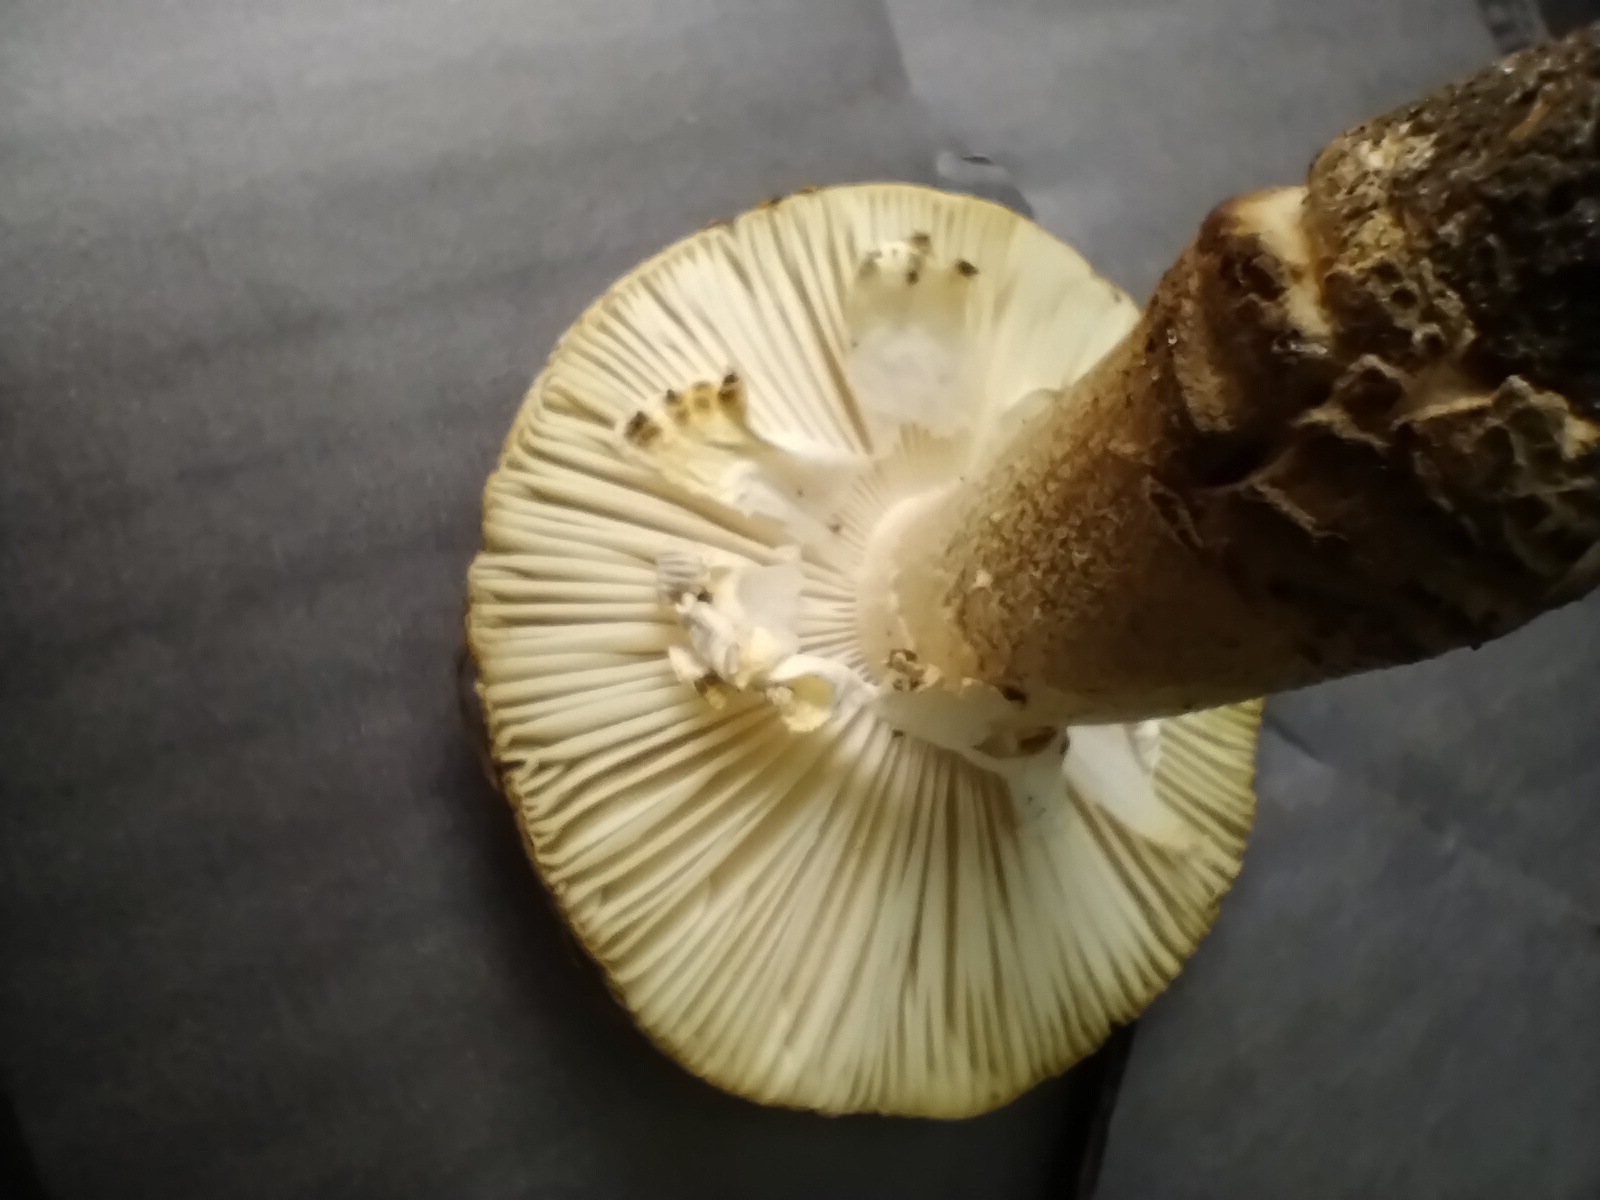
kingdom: Fungi
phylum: Basidiomycota
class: Agaricomycetes
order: Agaricales
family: Amanitaceae
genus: Amanita
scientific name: Amanita franchetii
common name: gulrandet fluesvamp
